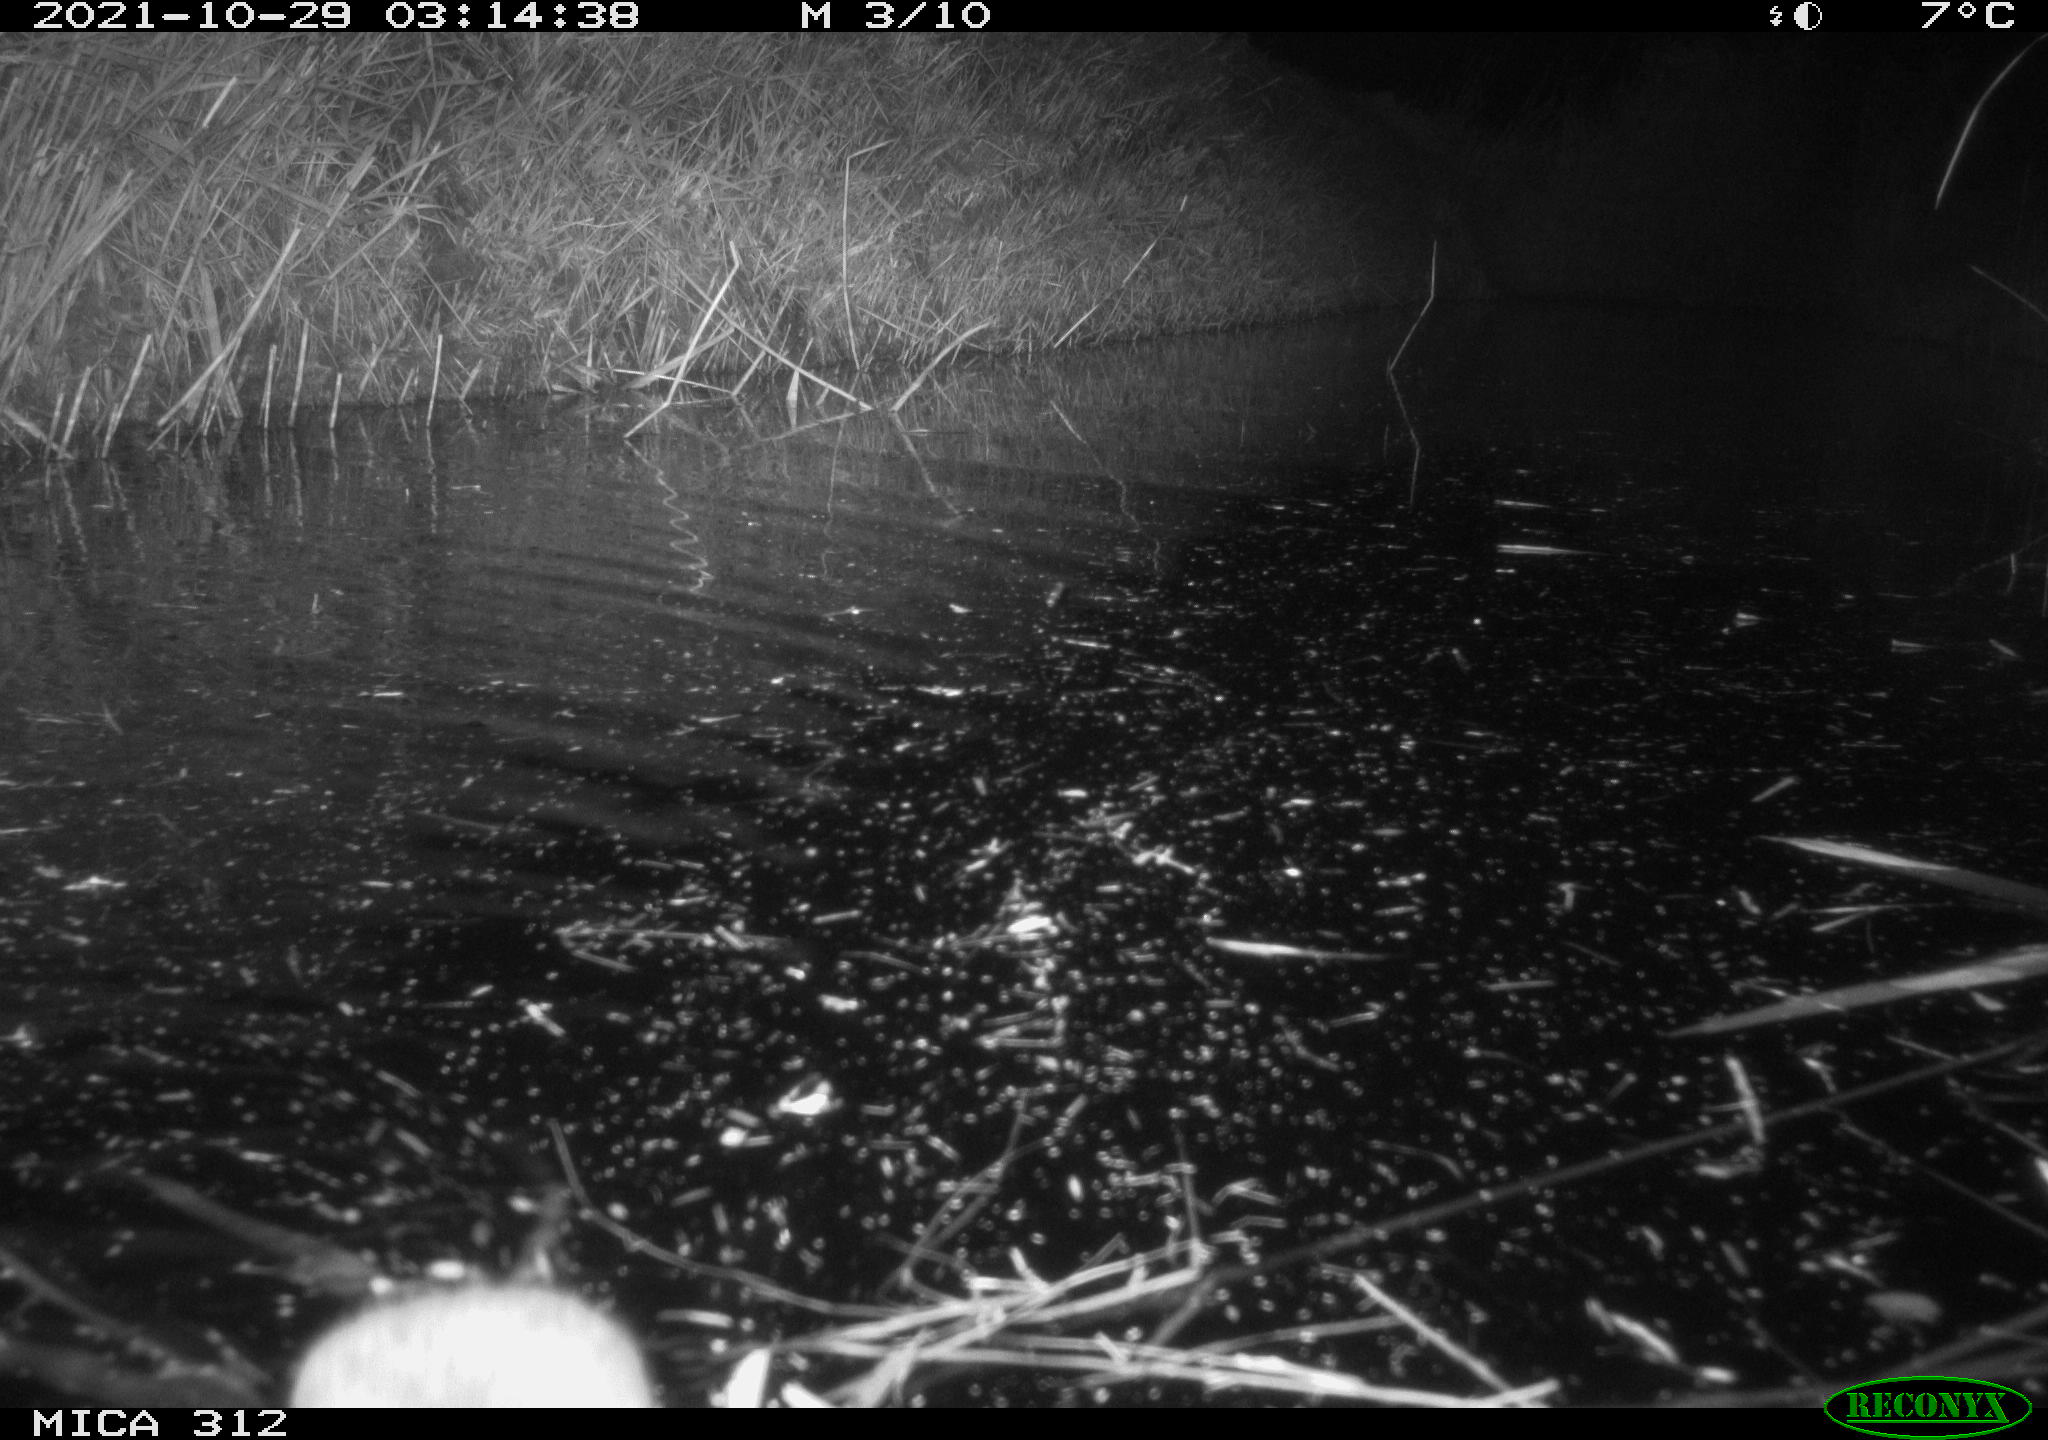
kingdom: Animalia
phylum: Chordata
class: Mammalia
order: Rodentia
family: Muridae
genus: Rattus
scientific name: Rattus norvegicus
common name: Brown rat
